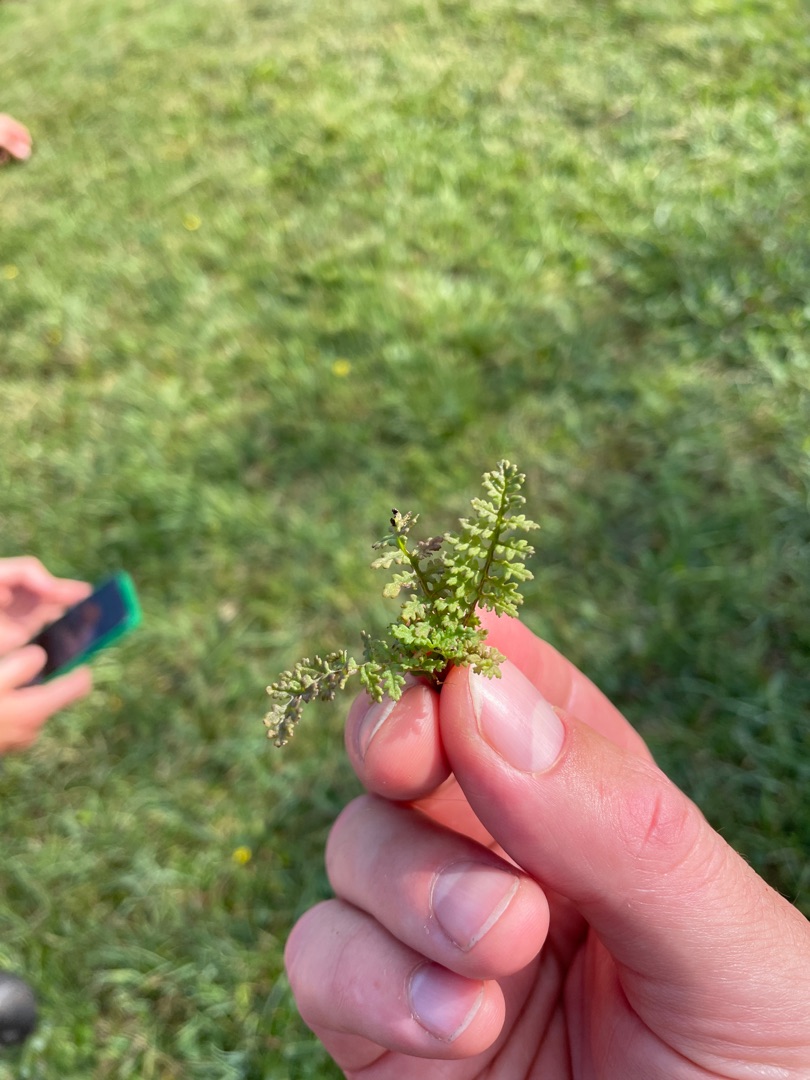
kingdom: Plantae
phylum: Tracheophyta
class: Magnoliopsida
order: Lamiales
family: Orobanchaceae
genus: Pedicularis
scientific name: Pedicularis
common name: Troldurtslægten
